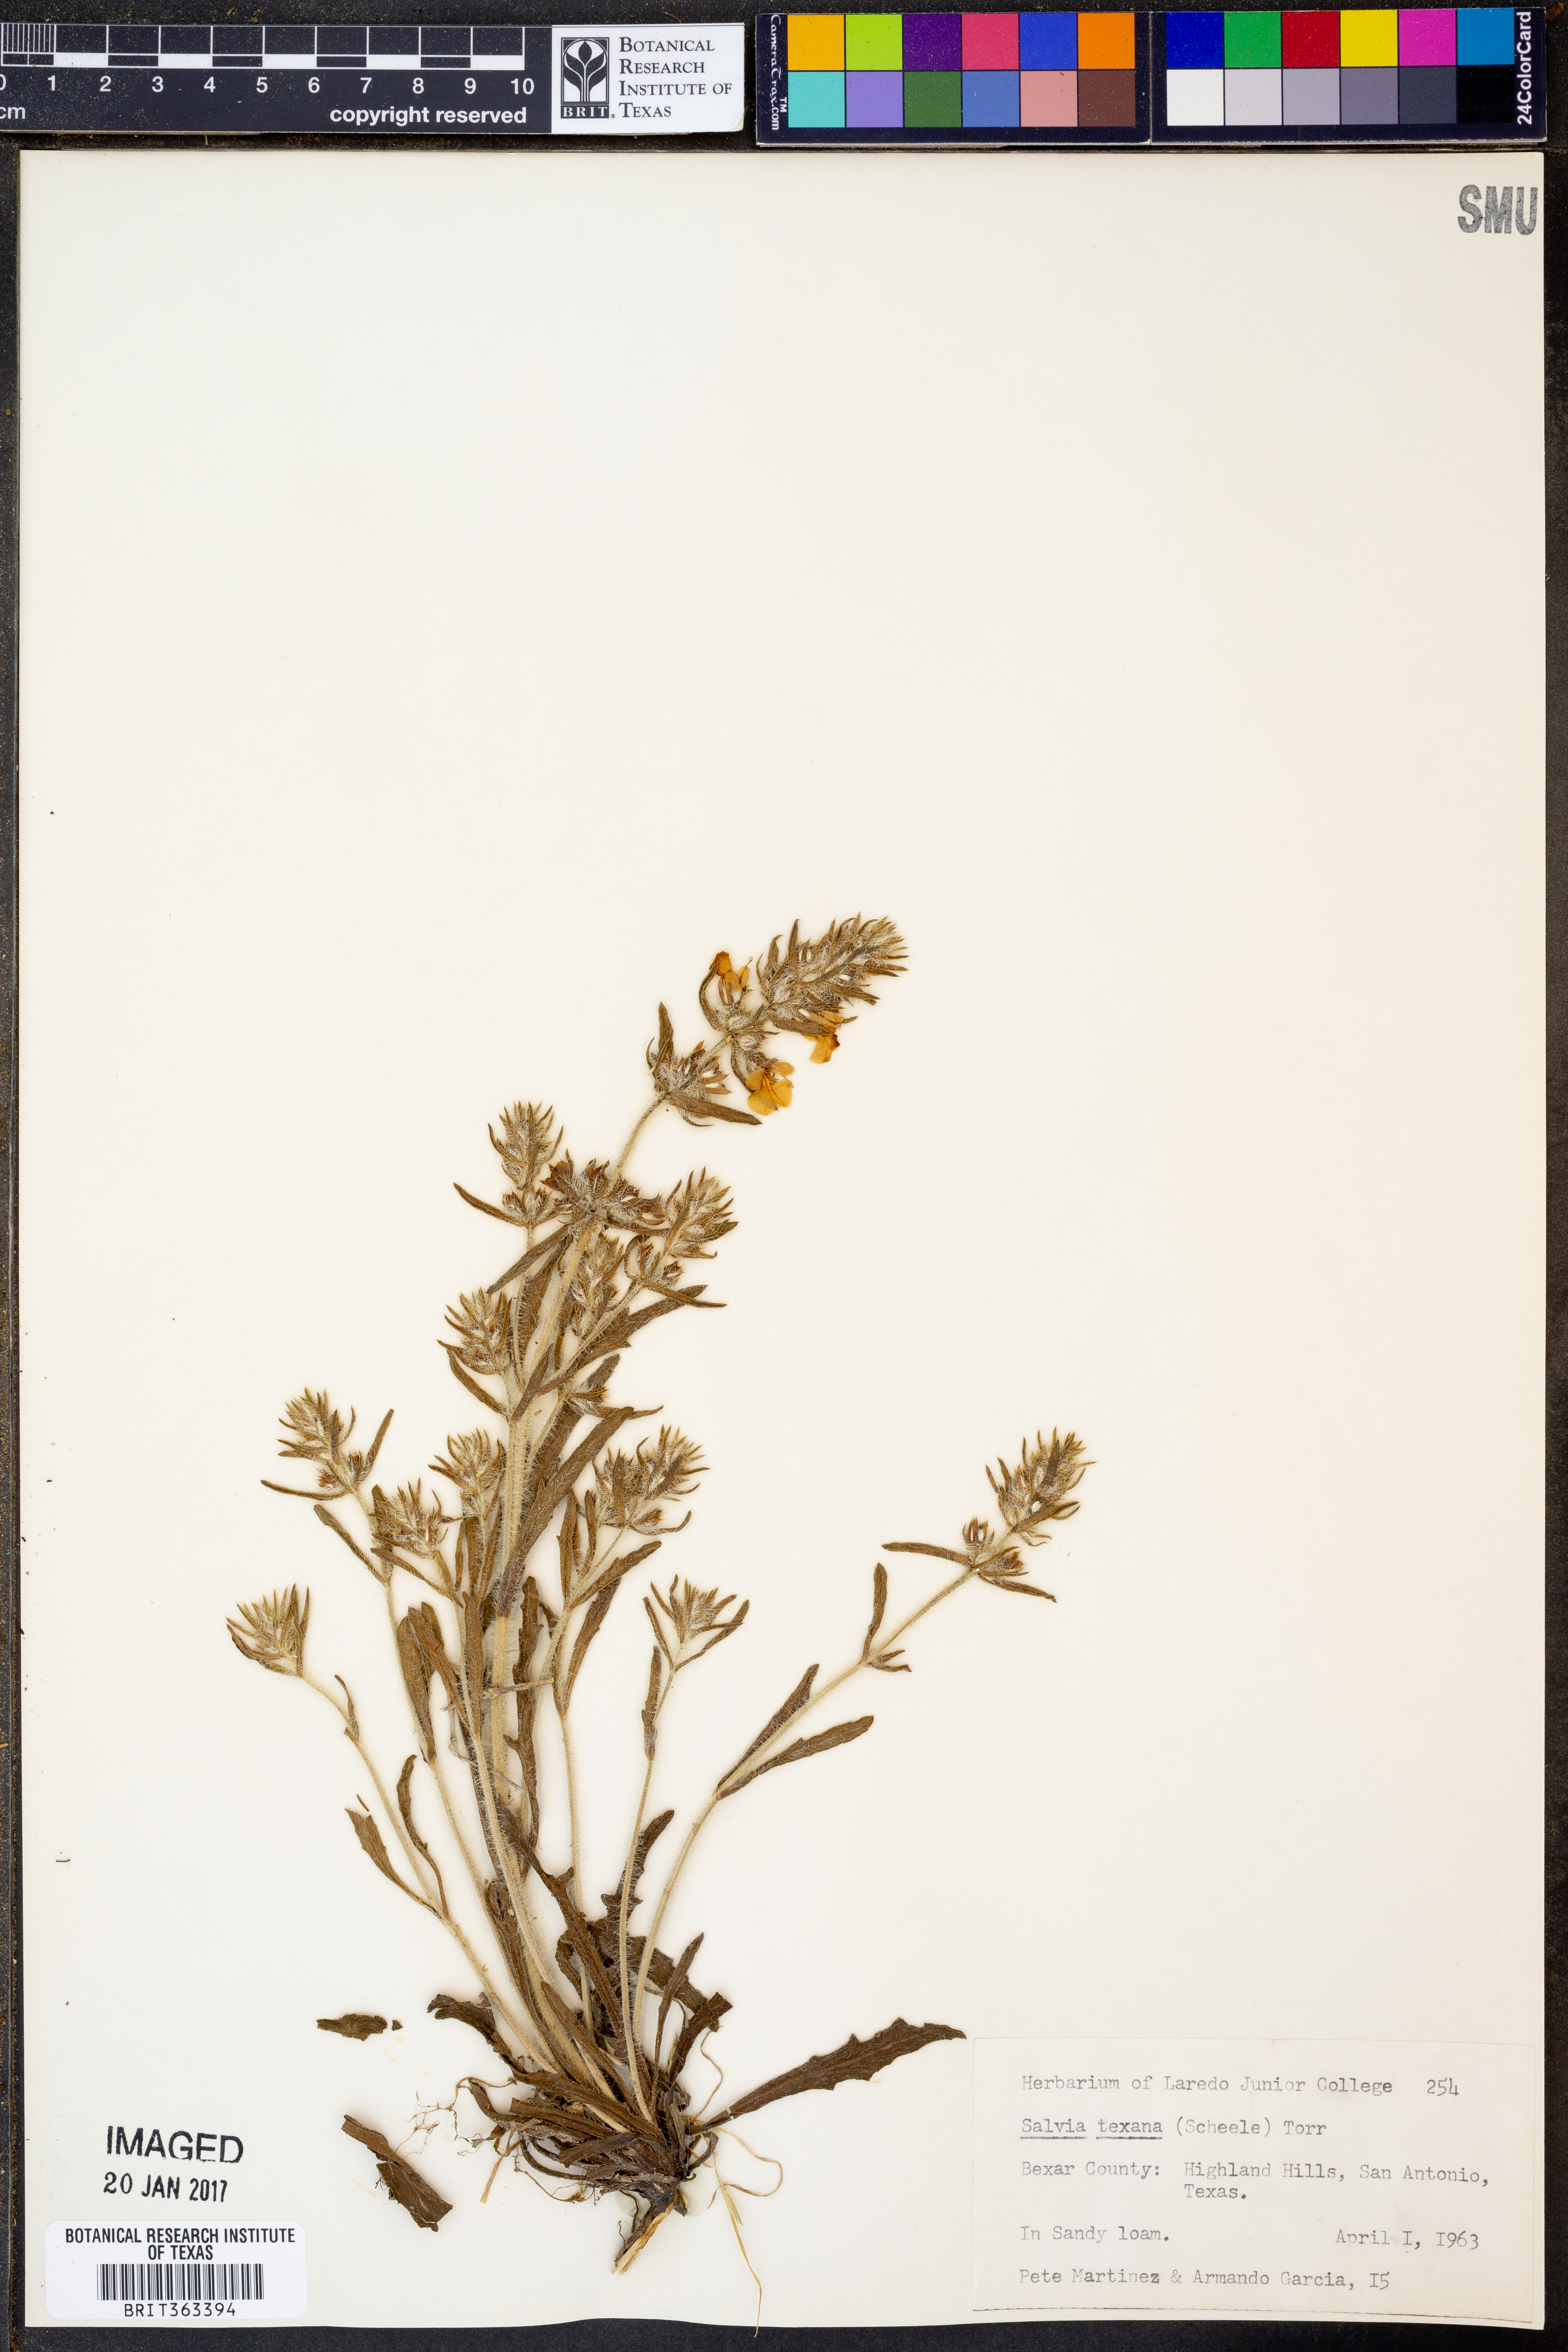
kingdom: Plantae
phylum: Tracheophyta
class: Magnoliopsida
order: Lamiales
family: Lamiaceae
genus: Salvia
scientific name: Salvia texana
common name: Texas sage
